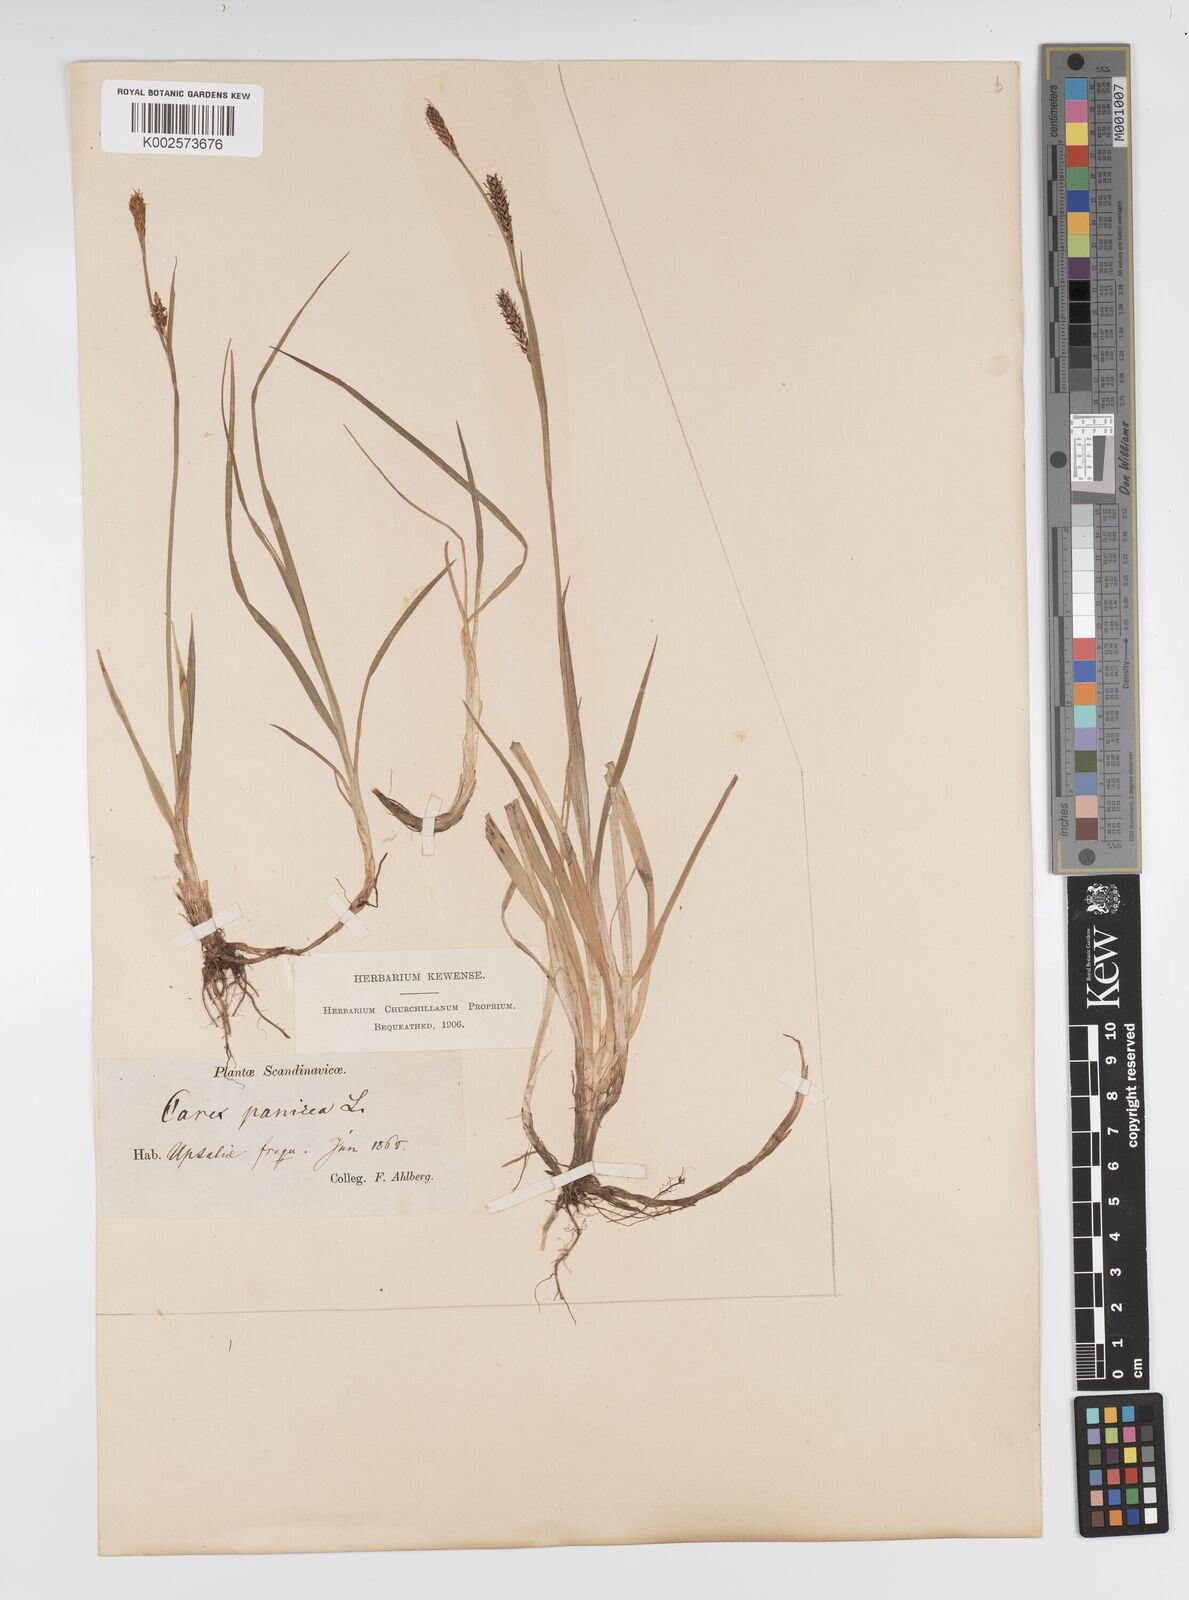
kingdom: Plantae
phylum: Tracheophyta
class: Liliopsida
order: Poales
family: Cyperaceae
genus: Carex
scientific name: Carex panicea
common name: Carnation sedge
